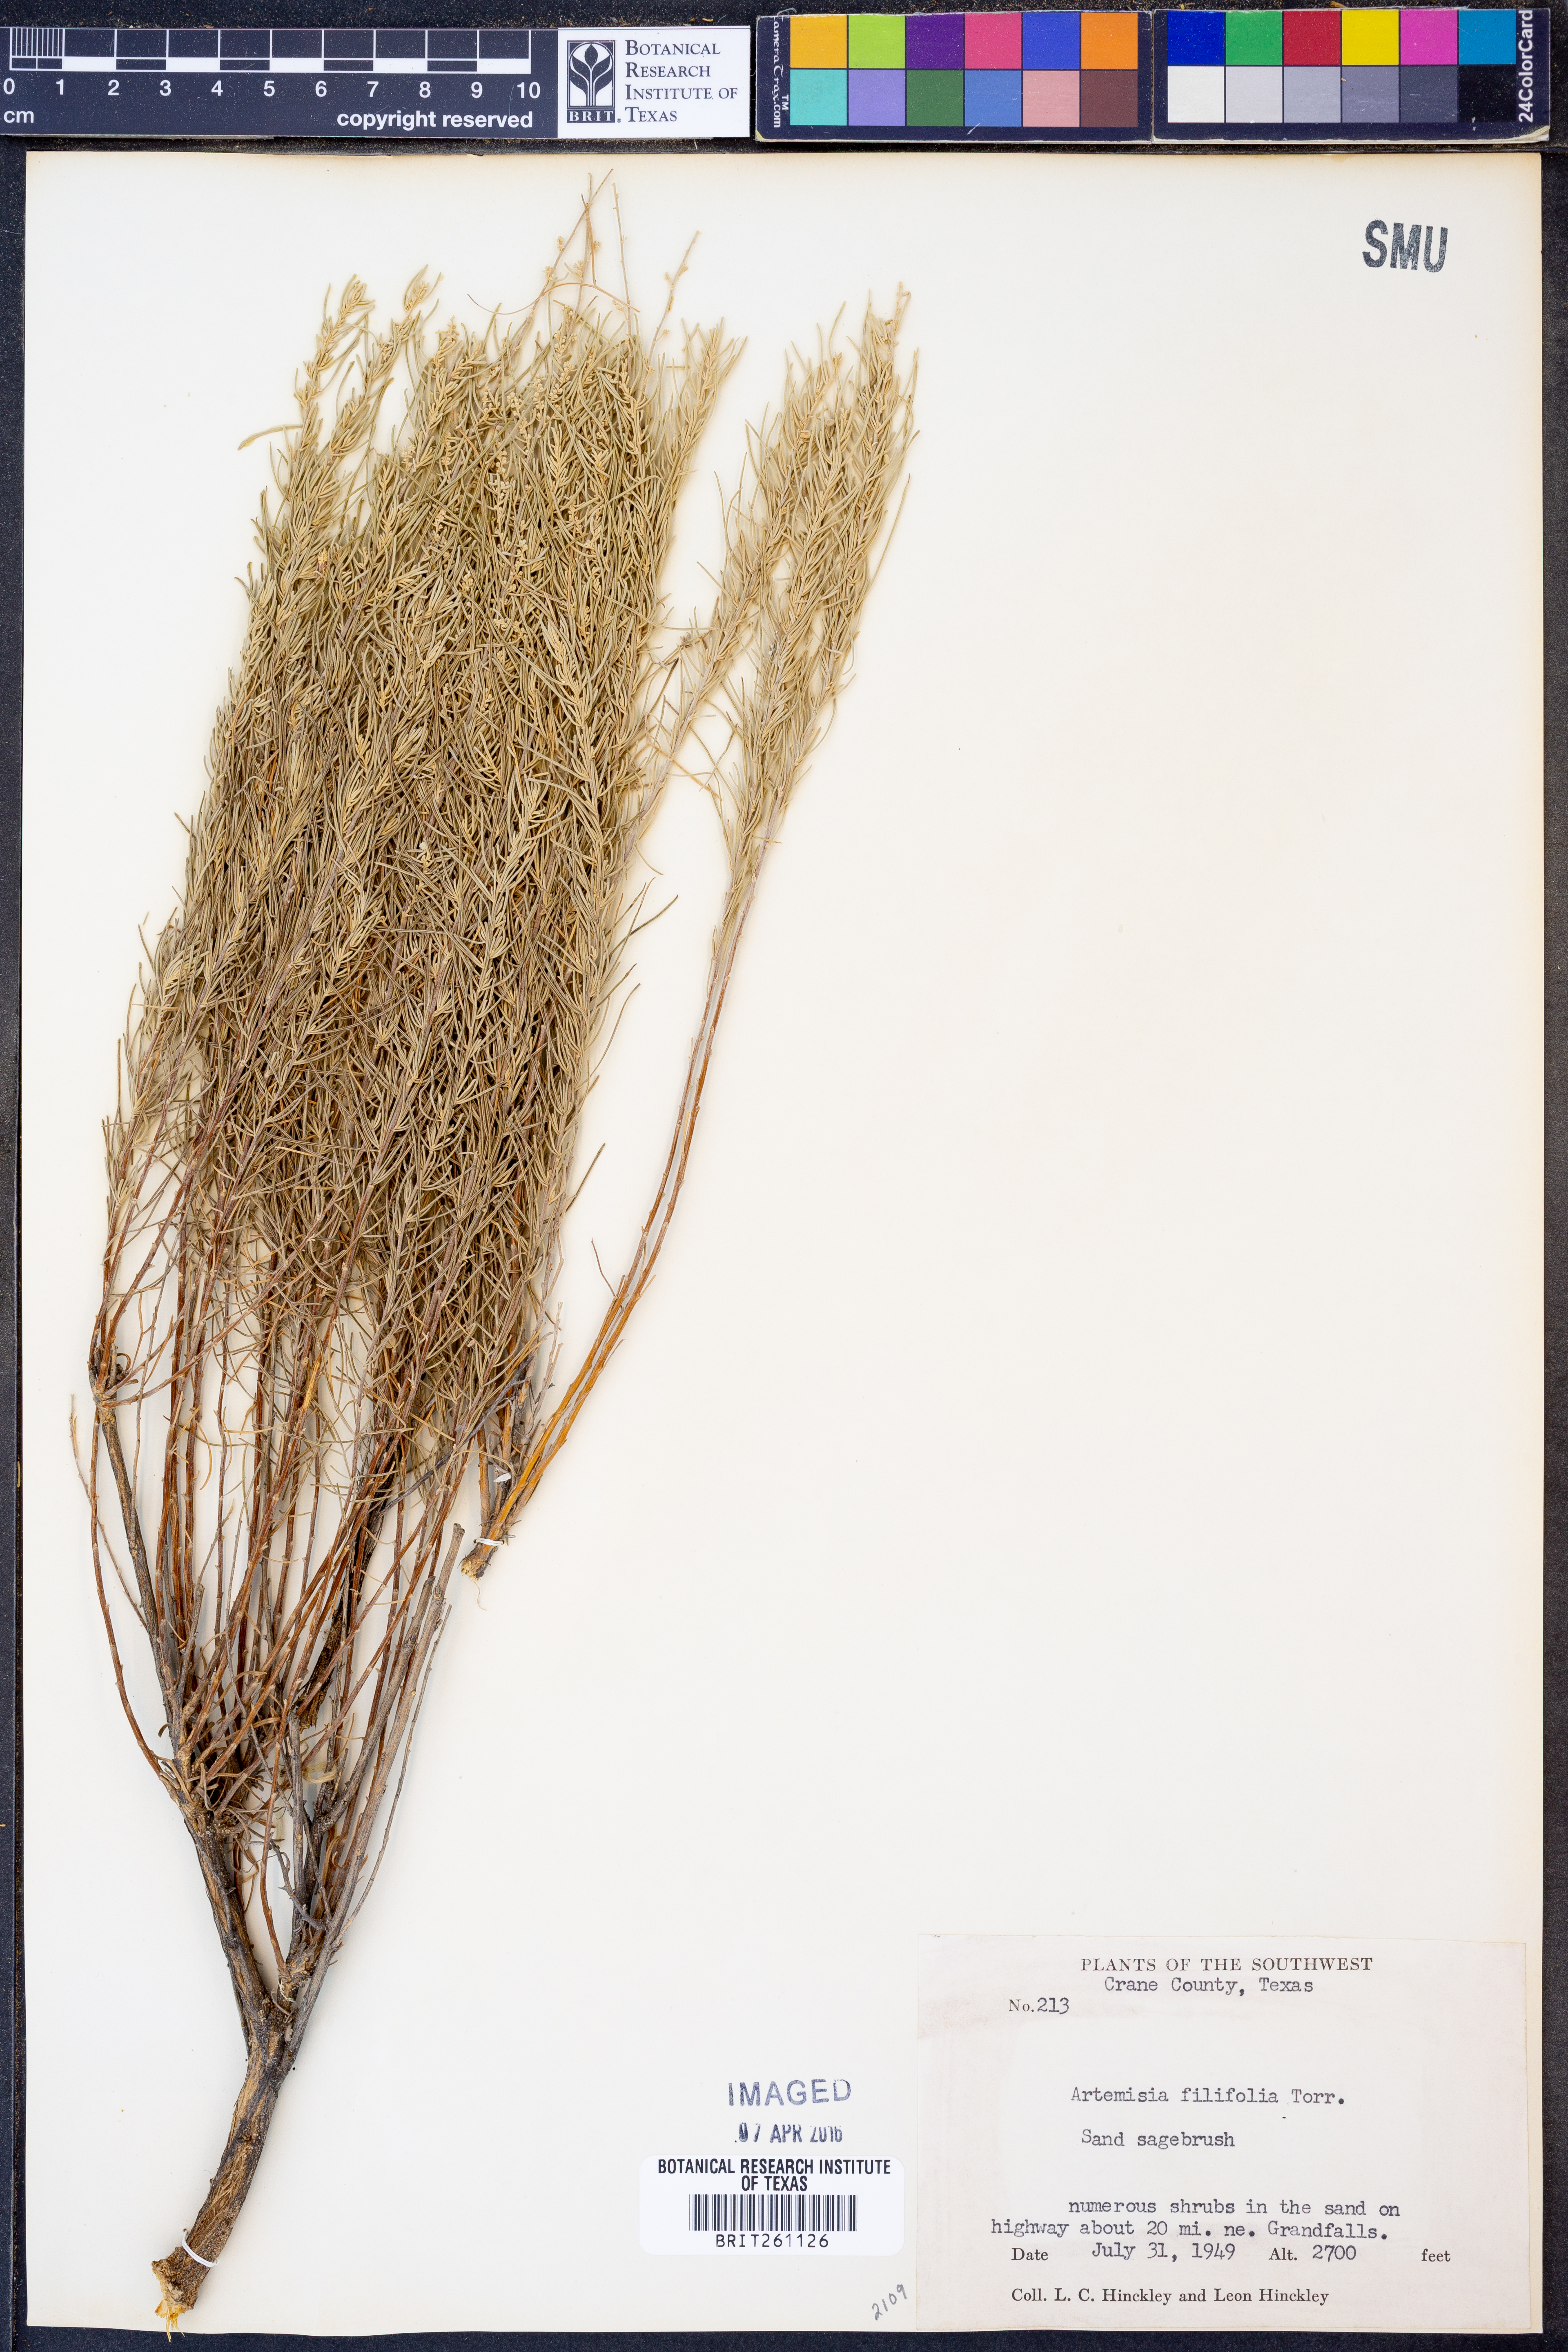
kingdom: Plantae
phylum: Tracheophyta
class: Magnoliopsida
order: Asterales
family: Asteraceae
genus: Artemisia
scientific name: Artemisia filifolia
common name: Sand-sage
